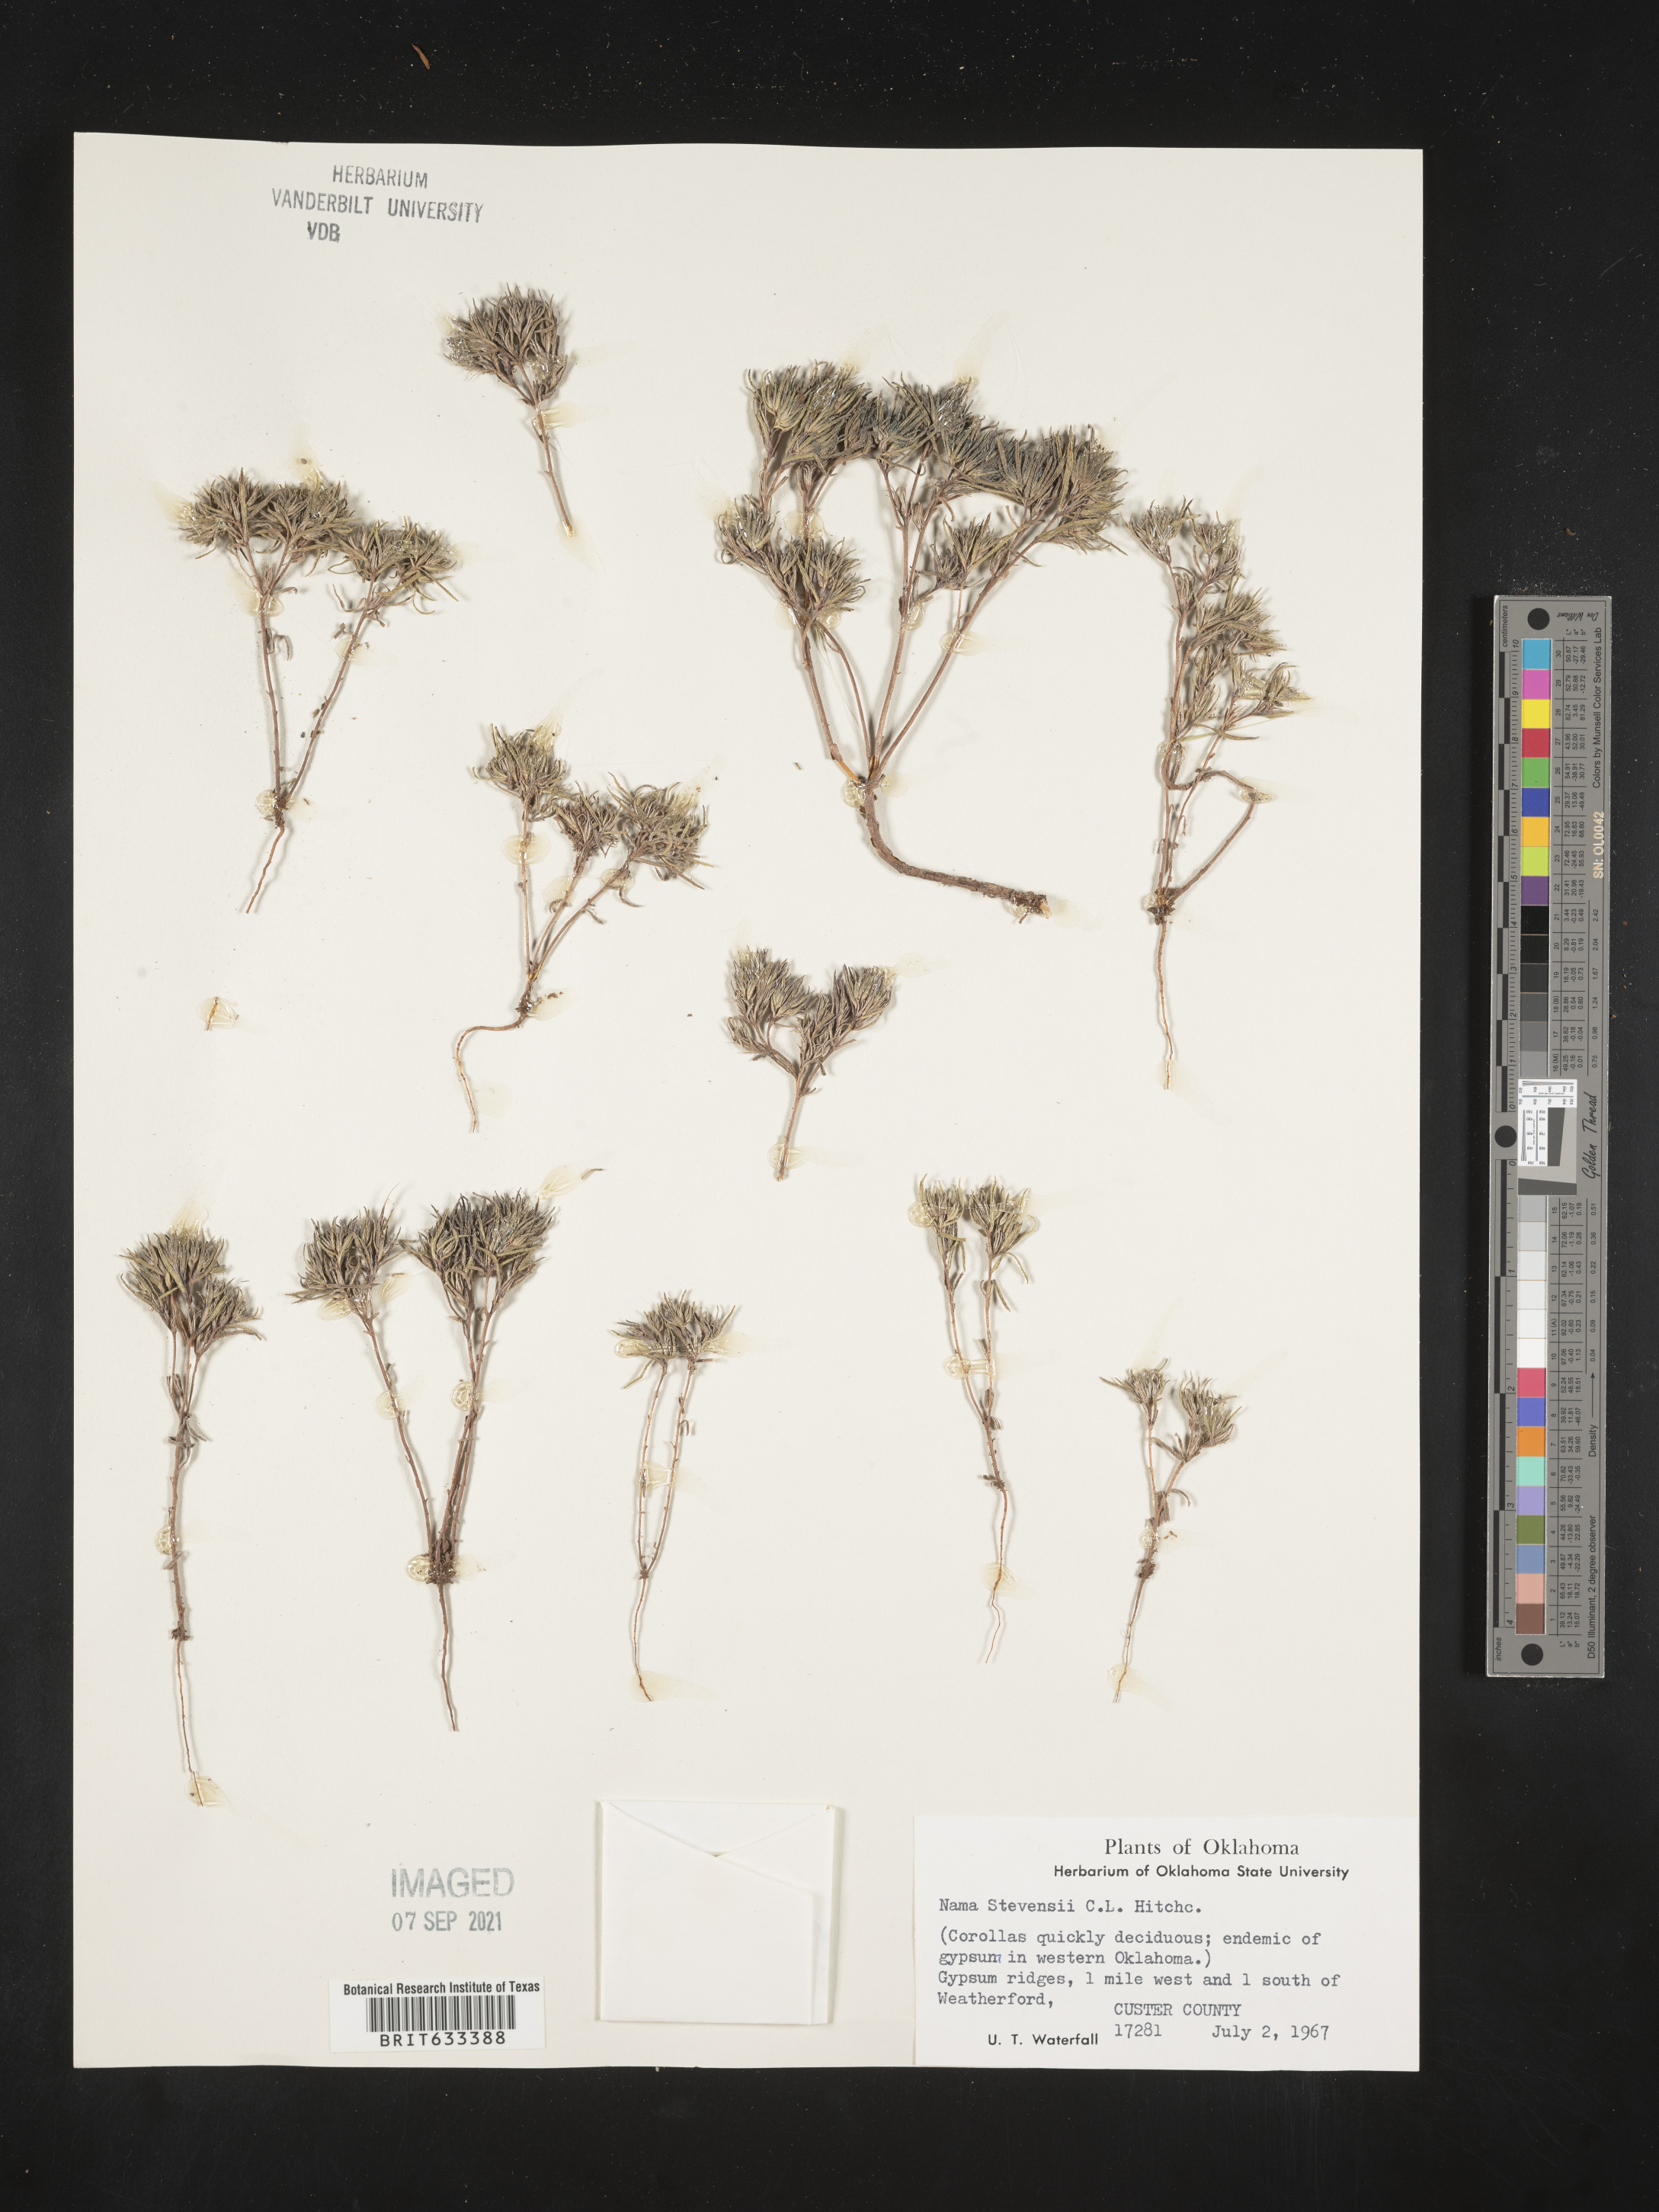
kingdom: Plantae
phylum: Tracheophyta
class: Magnoliopsida
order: Boraginales
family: Namaceae
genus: Nama
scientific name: Nama stevensii
